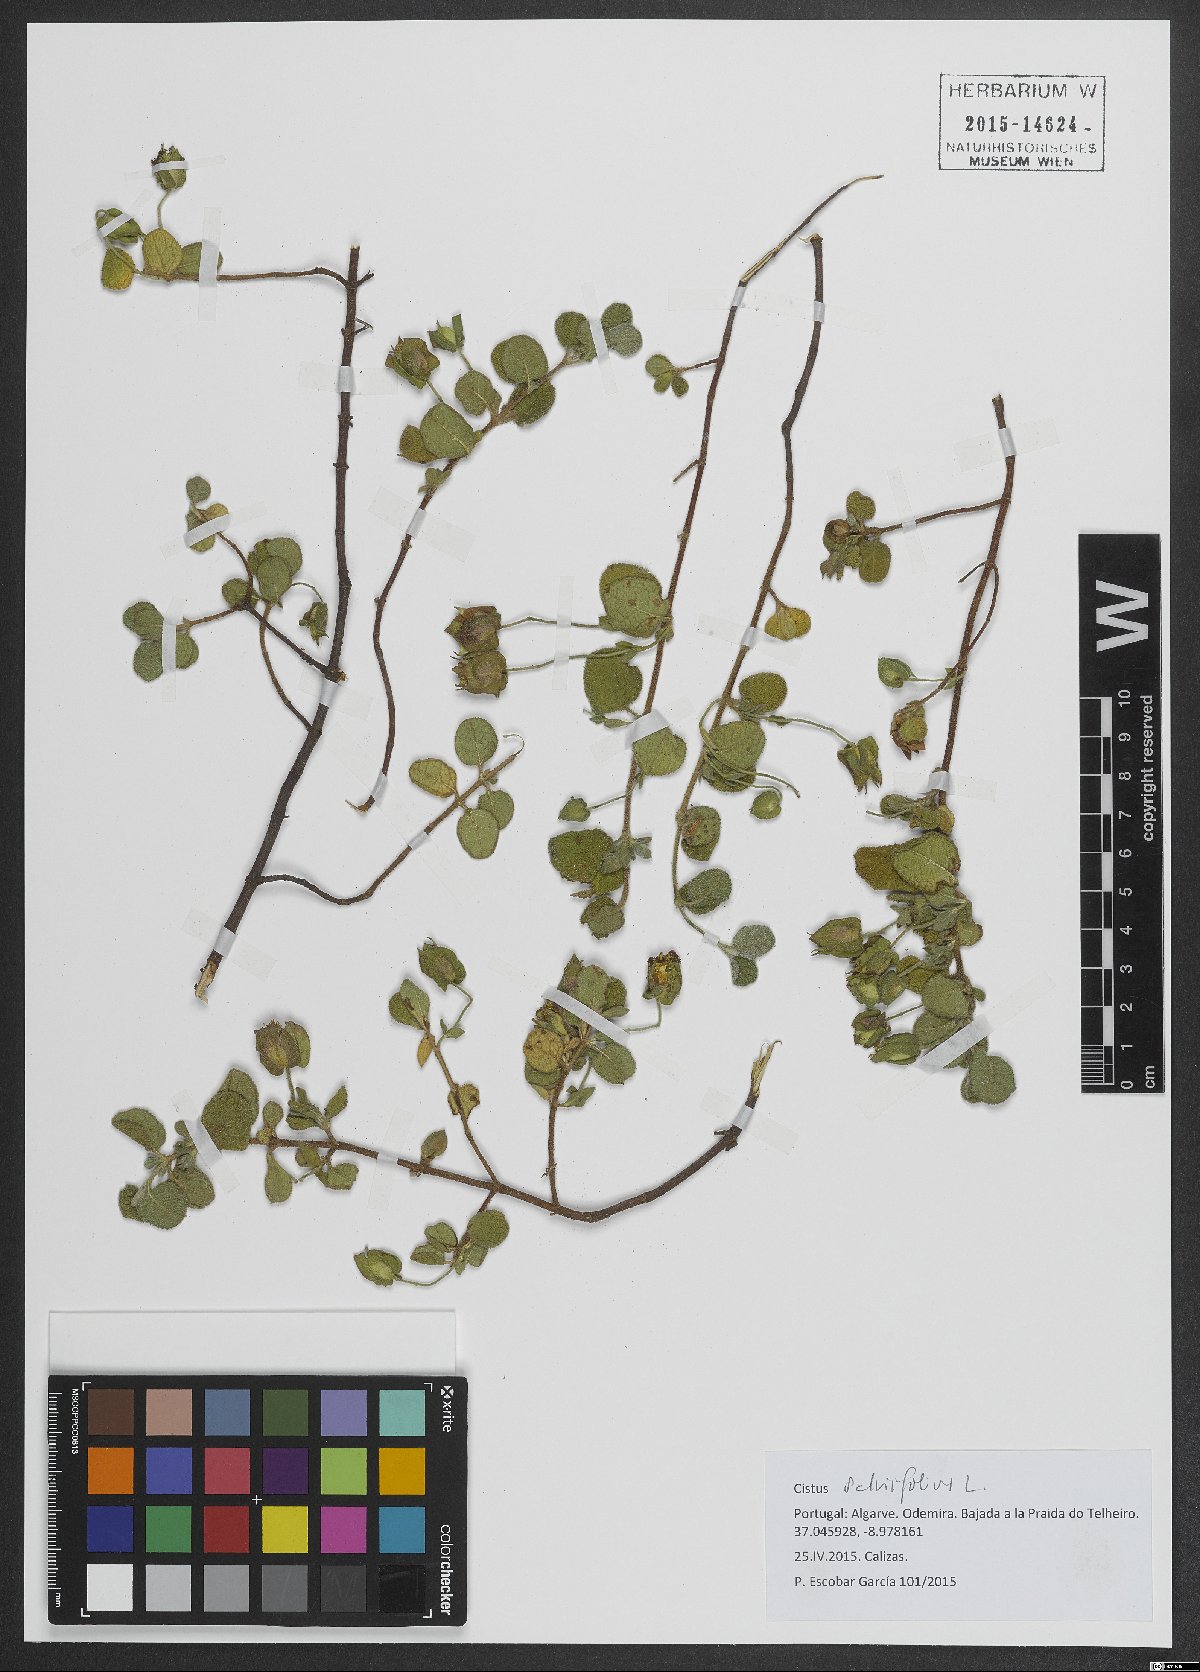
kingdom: Plantae
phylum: Tracheophyta
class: Magnoliopsida
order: Malvales
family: Cistaceae
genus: Cistus
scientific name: Cistus salviifolius
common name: Salvia cistus
